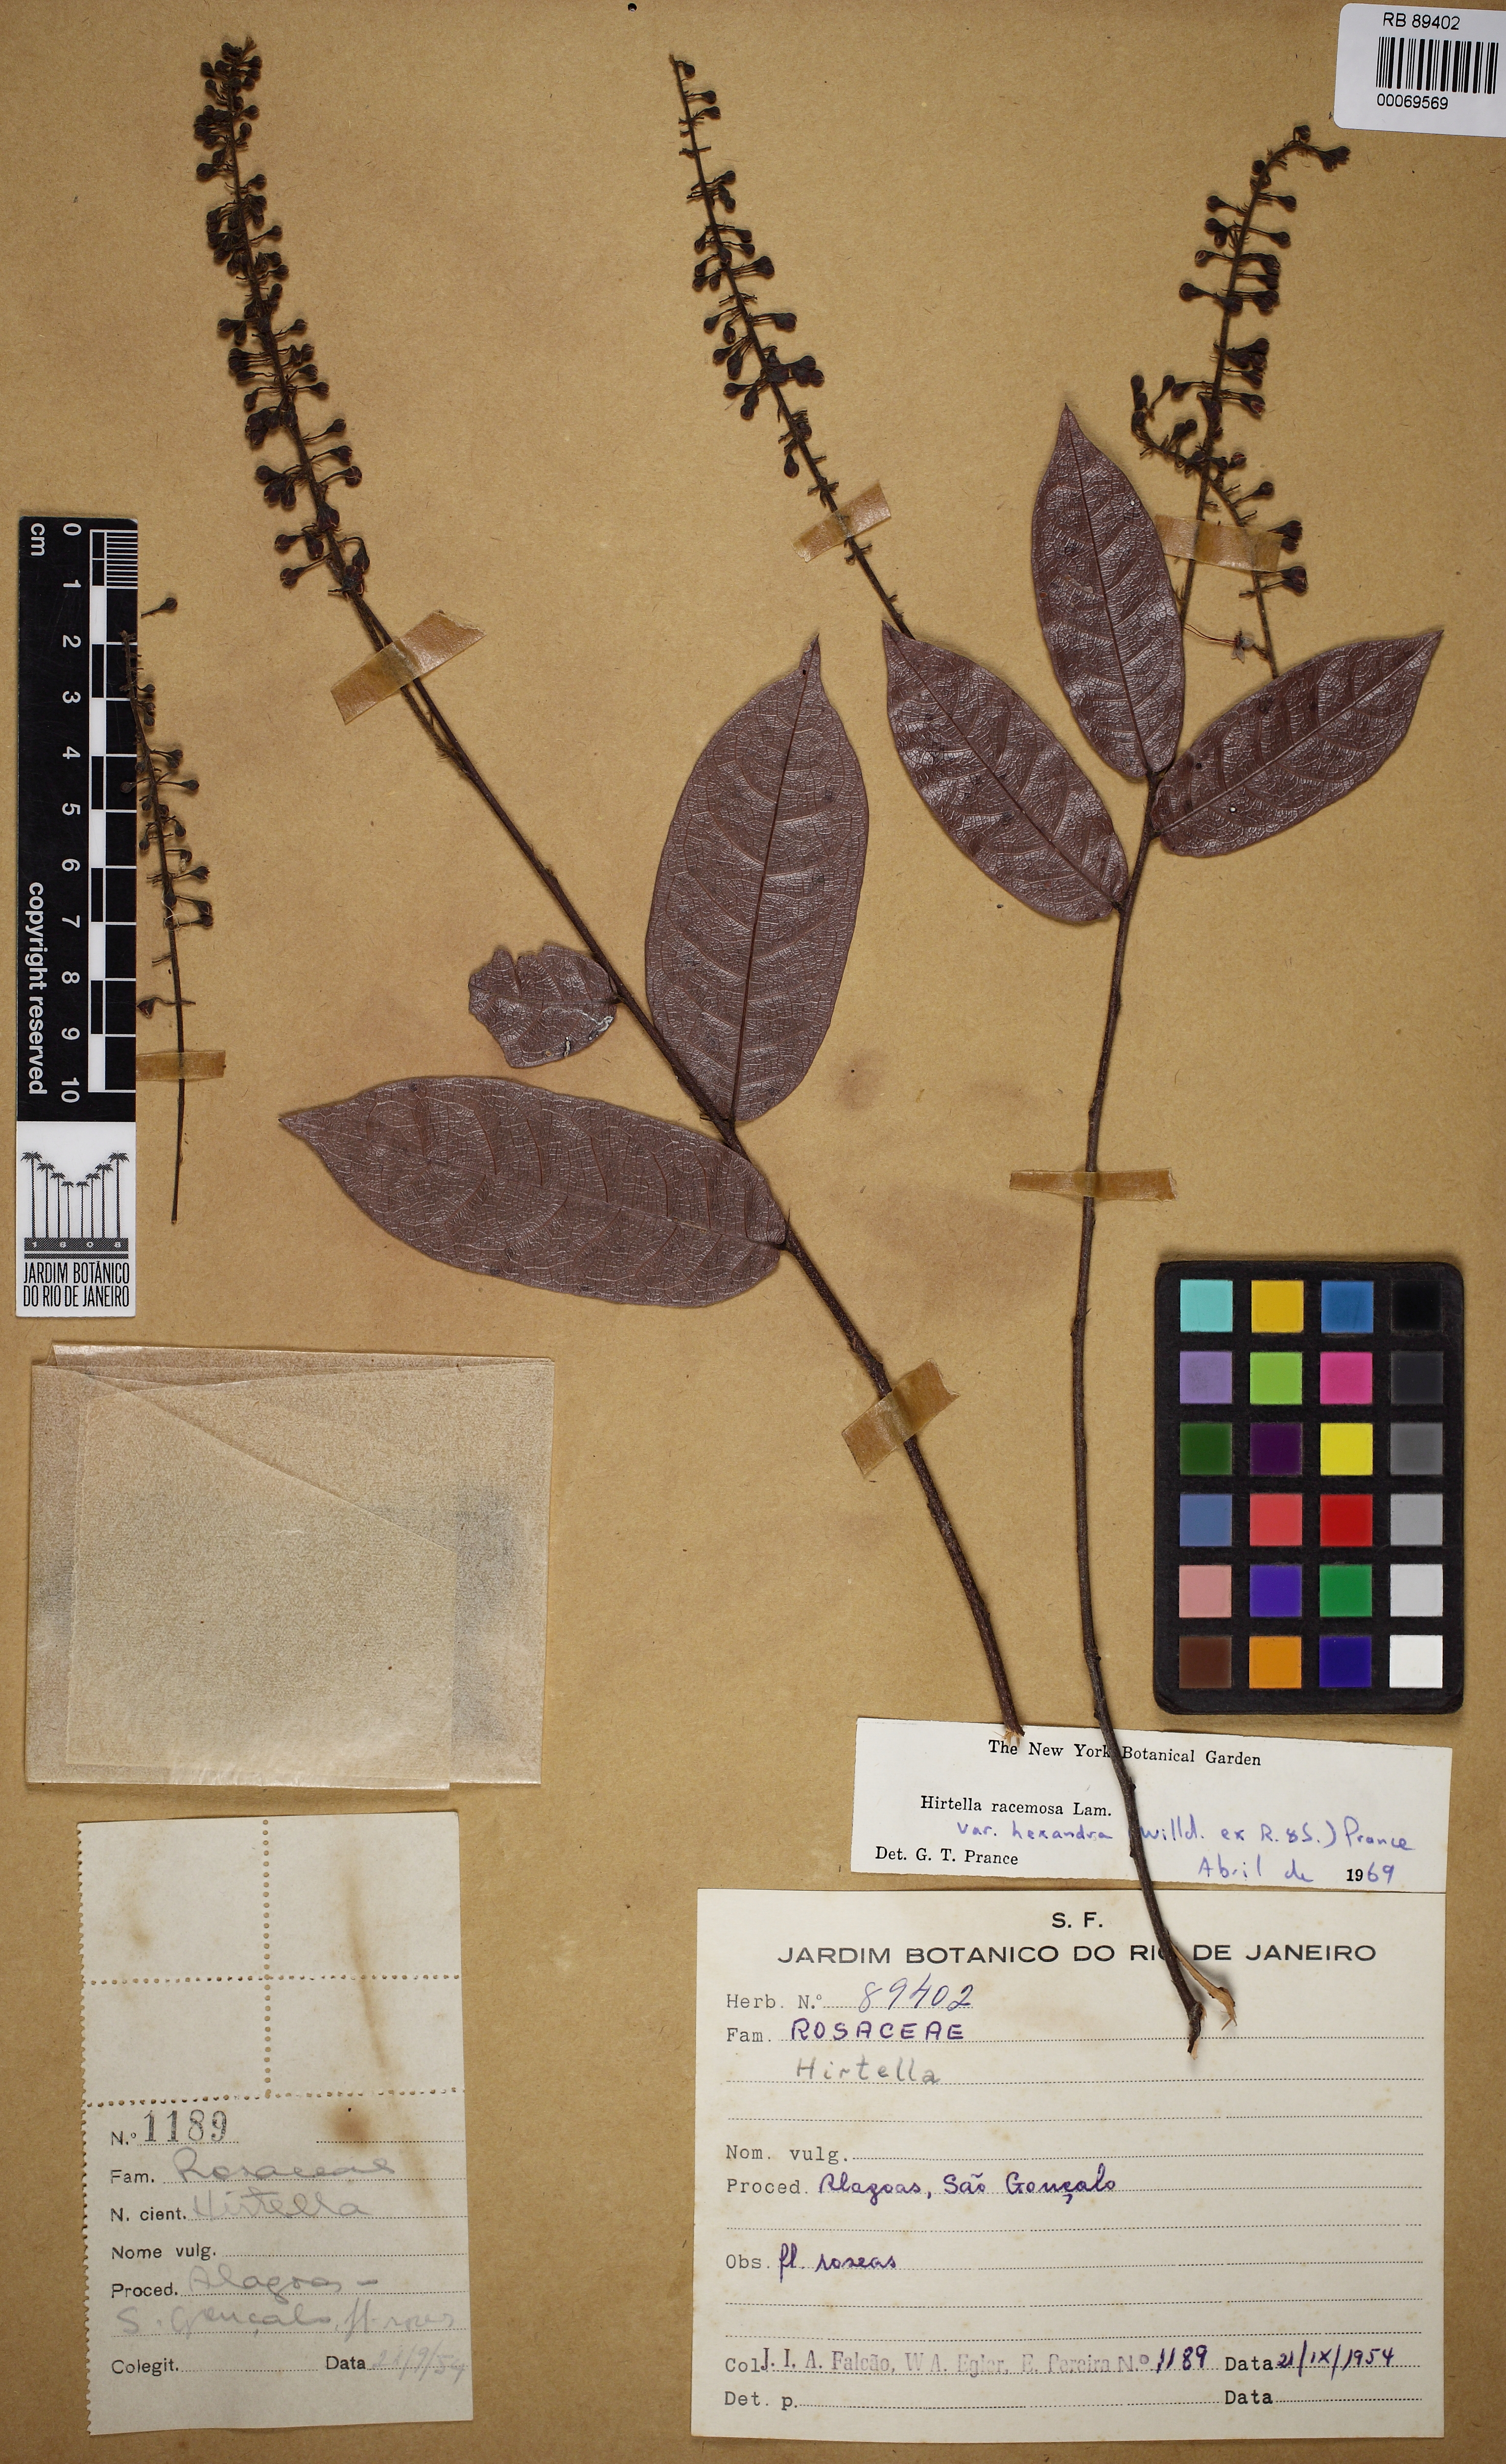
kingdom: Plantae
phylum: Tracheophyta
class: Magnoliopsida
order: Malpighiales
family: Chrysobalanaceae
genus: Hirtella
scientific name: Hirtella racemosa
